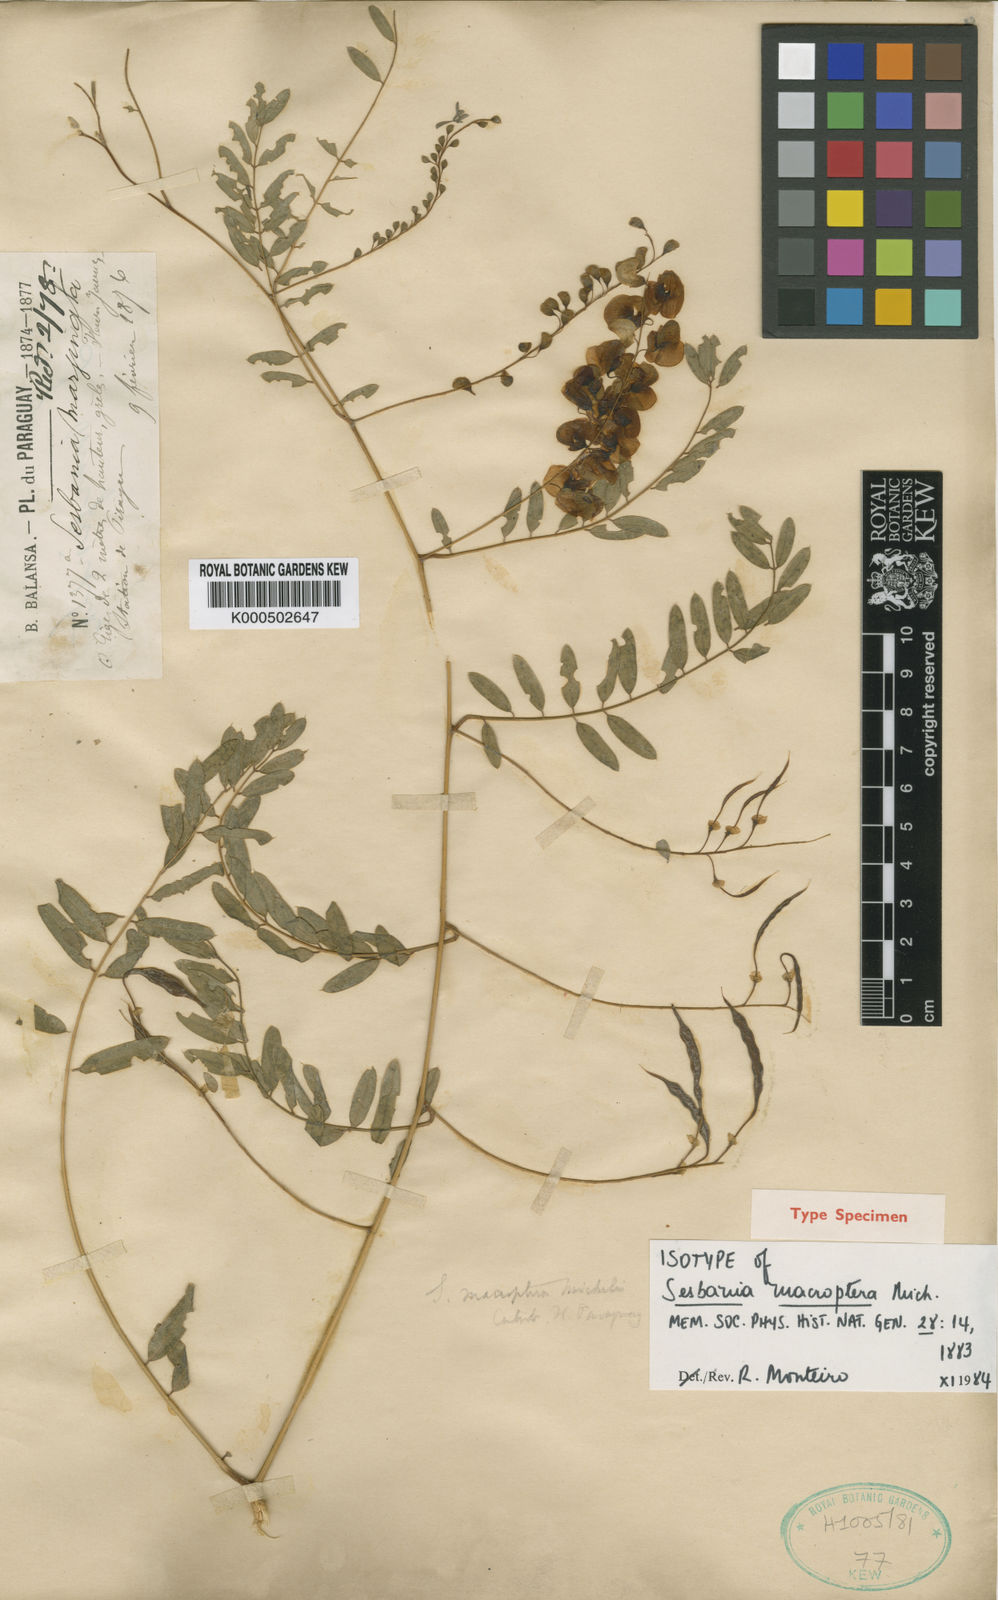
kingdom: Plantae
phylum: Tracheophyta
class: Magnoliopsida
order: Fabales
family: Fabaceae
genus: Sesbania
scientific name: Sesbania macroptera
